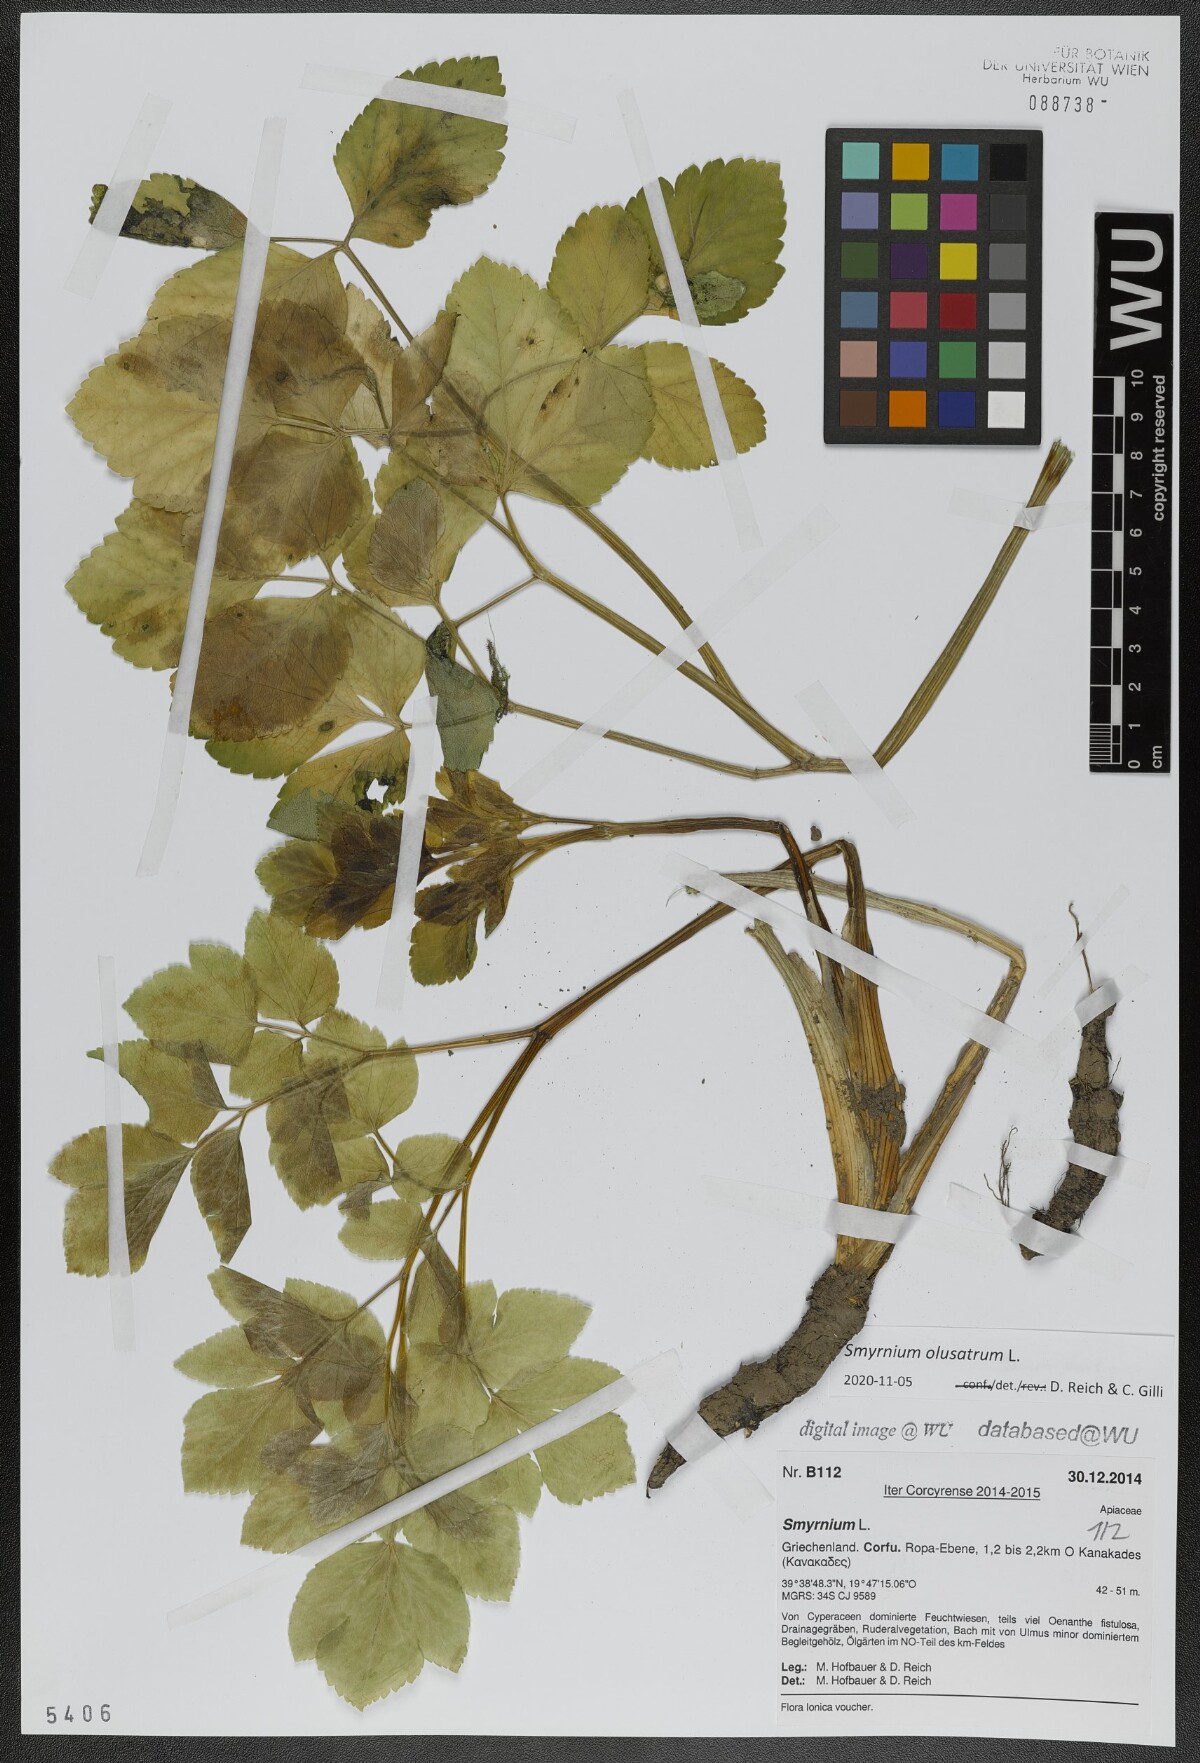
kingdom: Plantae
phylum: Tracheophyta
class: Magnoliopsida
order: Apiales
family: Apiaceae
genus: Smyrnium
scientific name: Smyrnium olusatrum
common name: Alexanders
